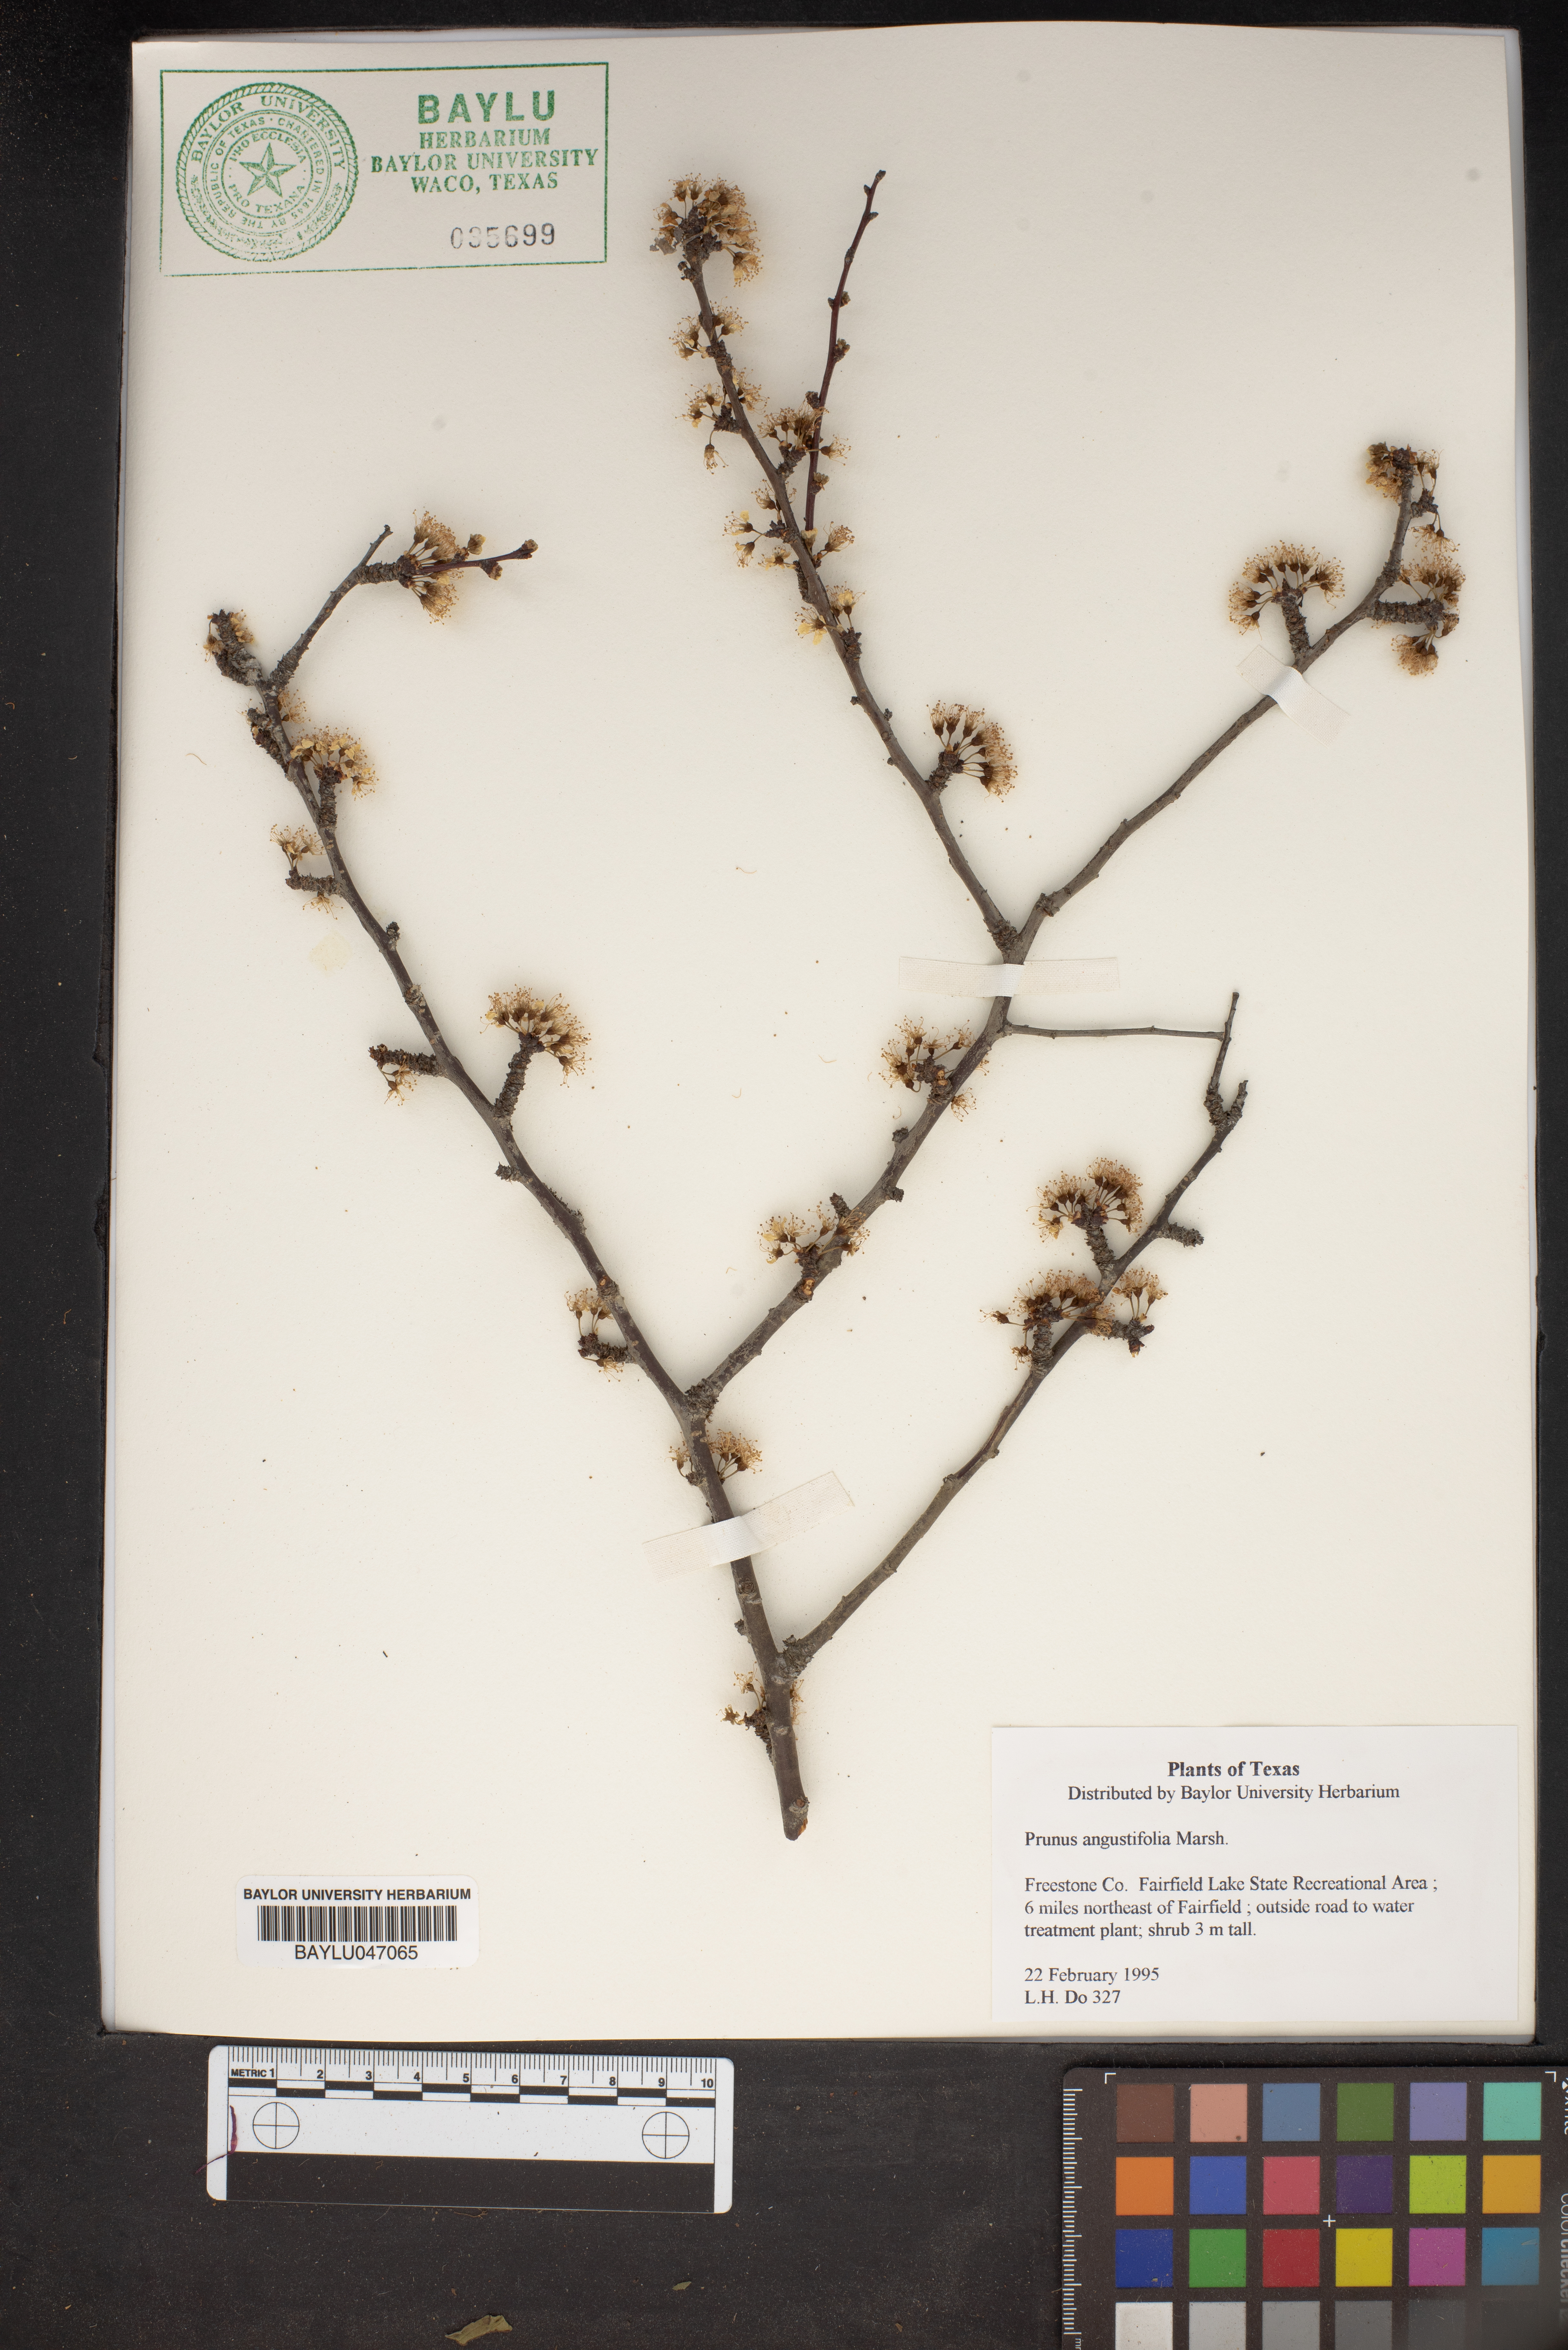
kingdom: Plantae
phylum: Tracheophyta
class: Magnoliopsida
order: Rosales
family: Rosaceae
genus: Prunus
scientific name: Prunus angustifolia
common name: Cherokee plum
